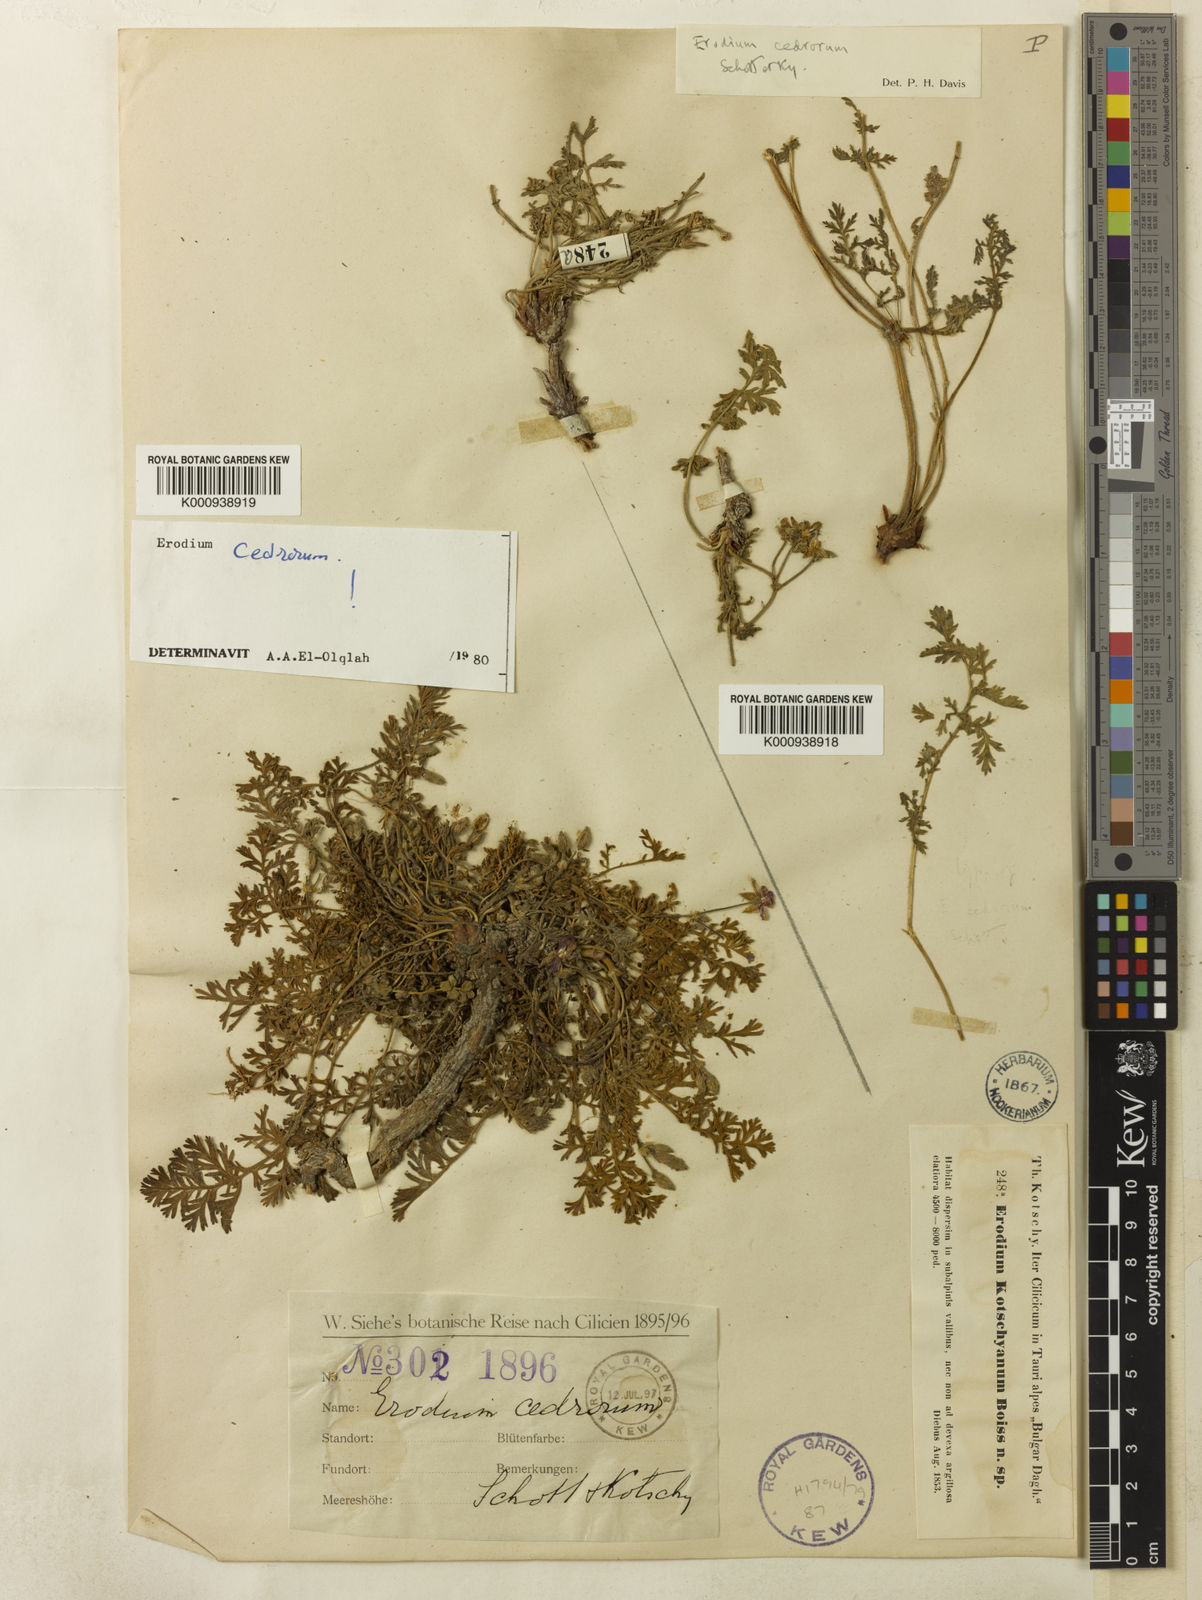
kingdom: Plantae
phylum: Tracheophyta
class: Magnoliopsida
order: Geraniales
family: Geraniaceae
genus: Erodium
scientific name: Erodium cedrorum
